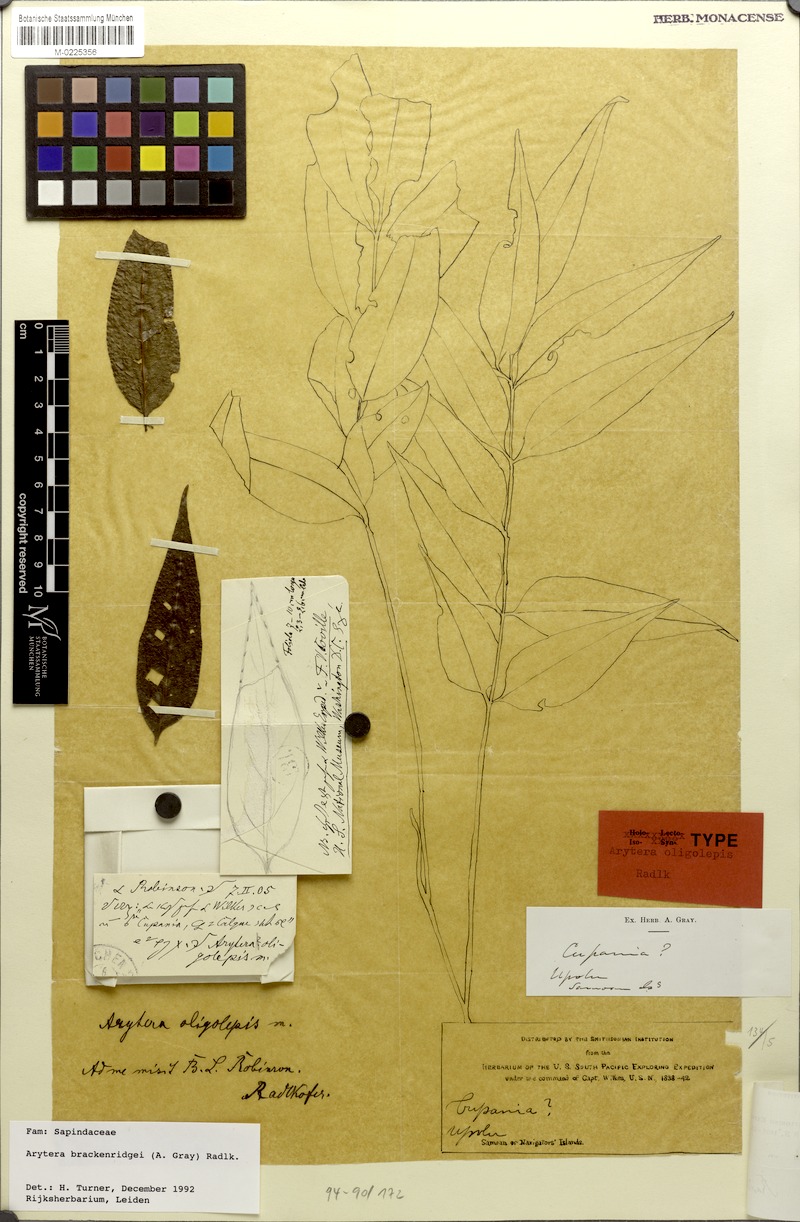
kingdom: Plantae
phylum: Tracheophyta
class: Magnoliopsida
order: Sapindales
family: Sapindaceae
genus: Lepidocupania
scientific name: Lepidocupania brackenridgei
